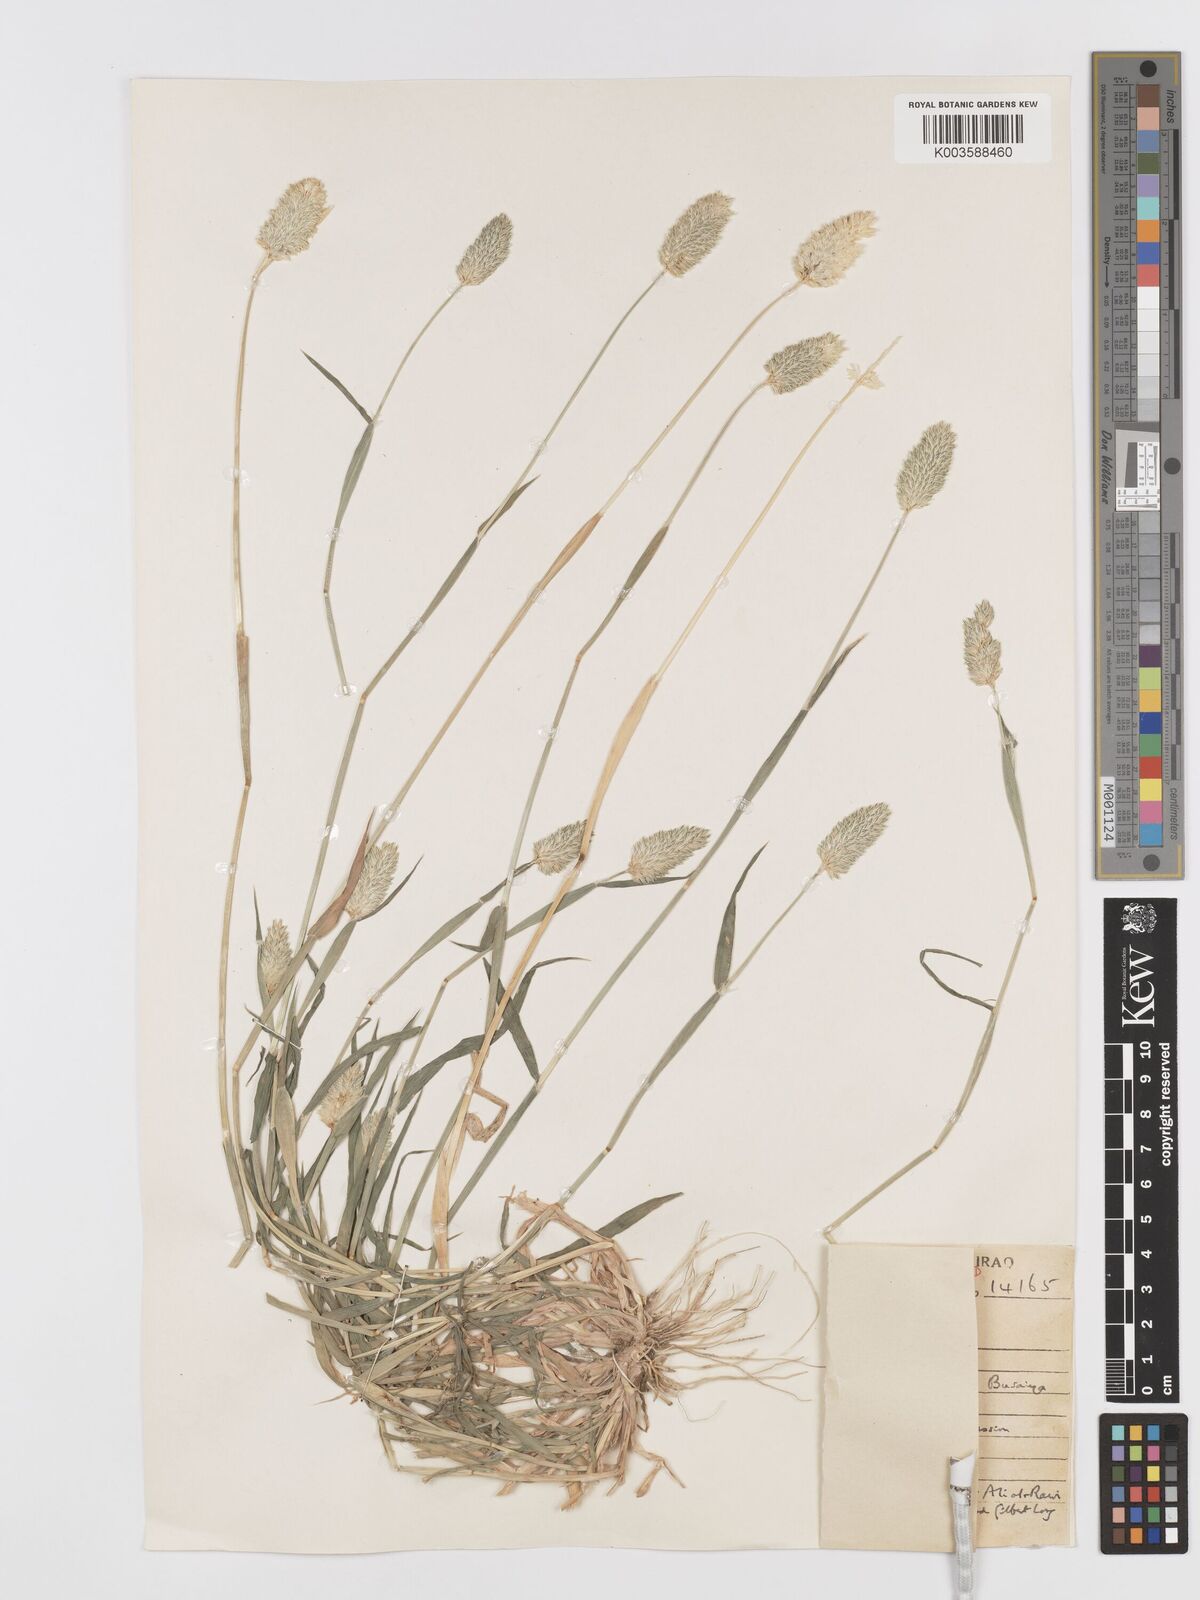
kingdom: Plantae
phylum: Tracheophyta
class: Liliopsida
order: Poales
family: Poaceae
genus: Phalaris
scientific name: Phalaris minor
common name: Littleseed canarygrass
